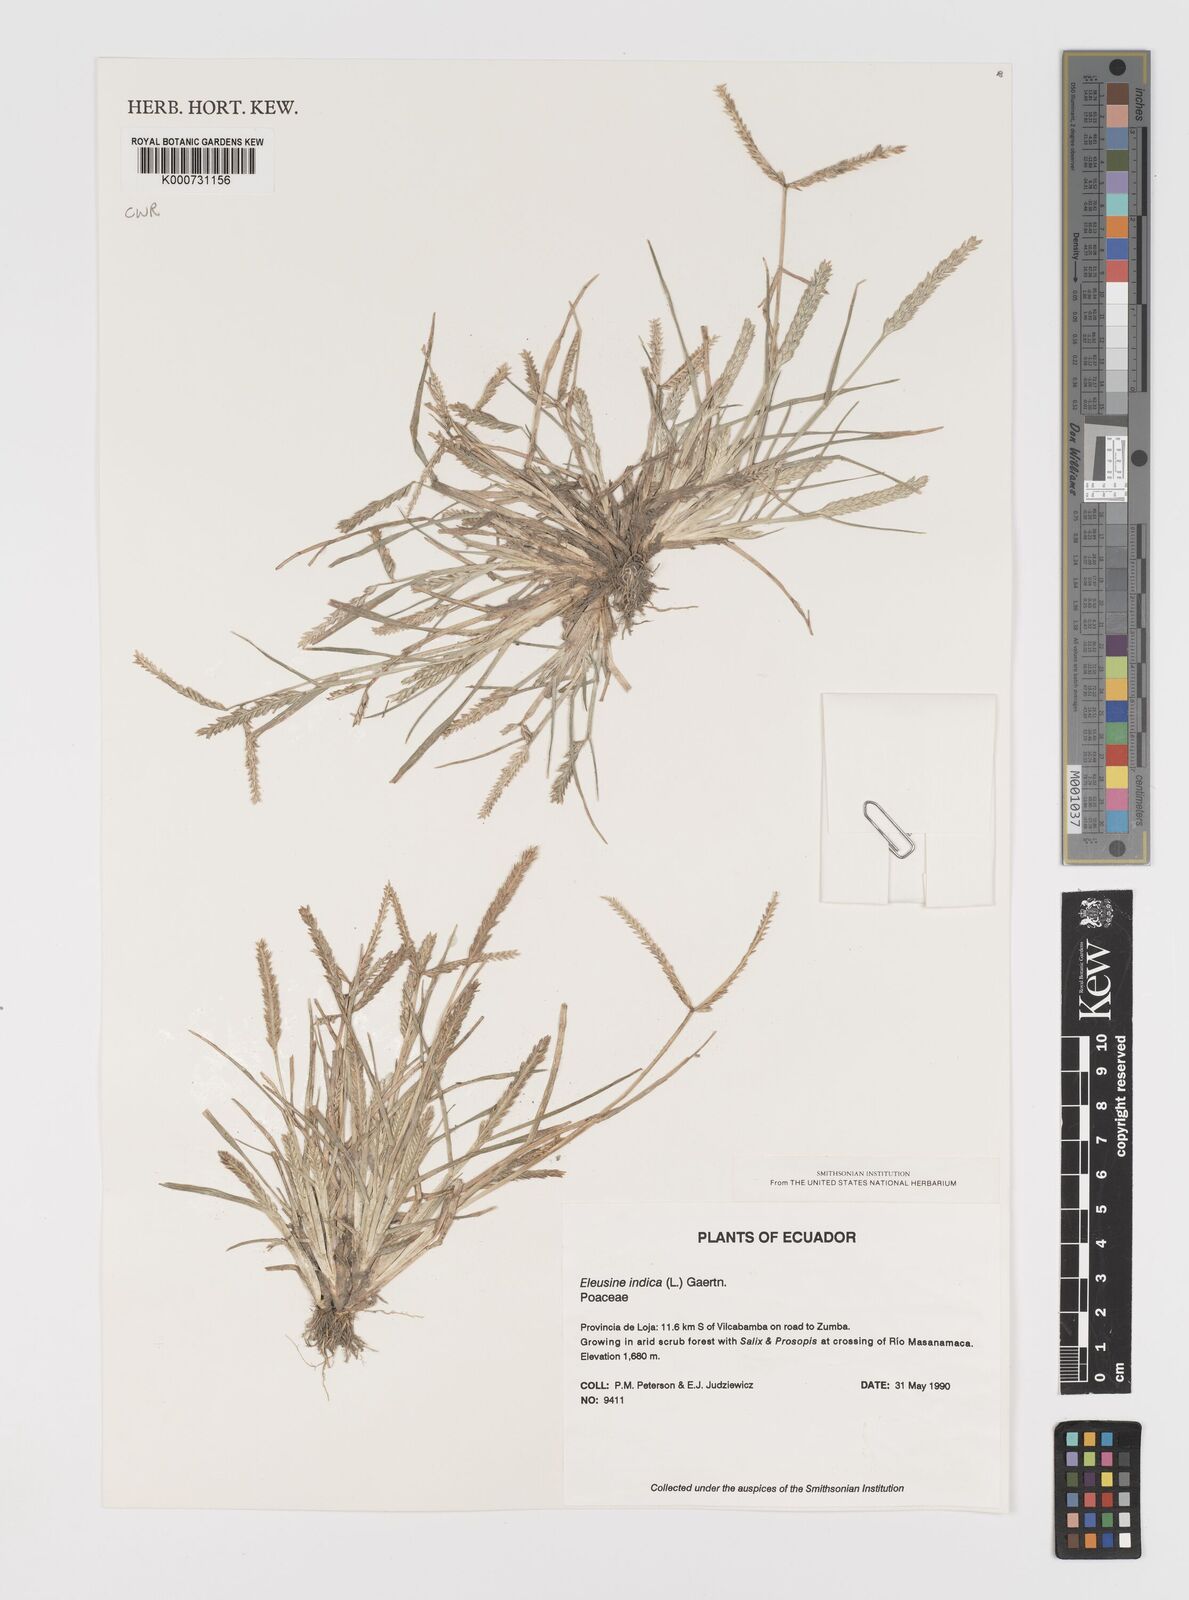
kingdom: Plantae
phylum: Tracheophyta
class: Liliopsida
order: Poales
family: Poaceae
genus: Eleusine
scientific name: Eleusine indica
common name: Yard-grass
